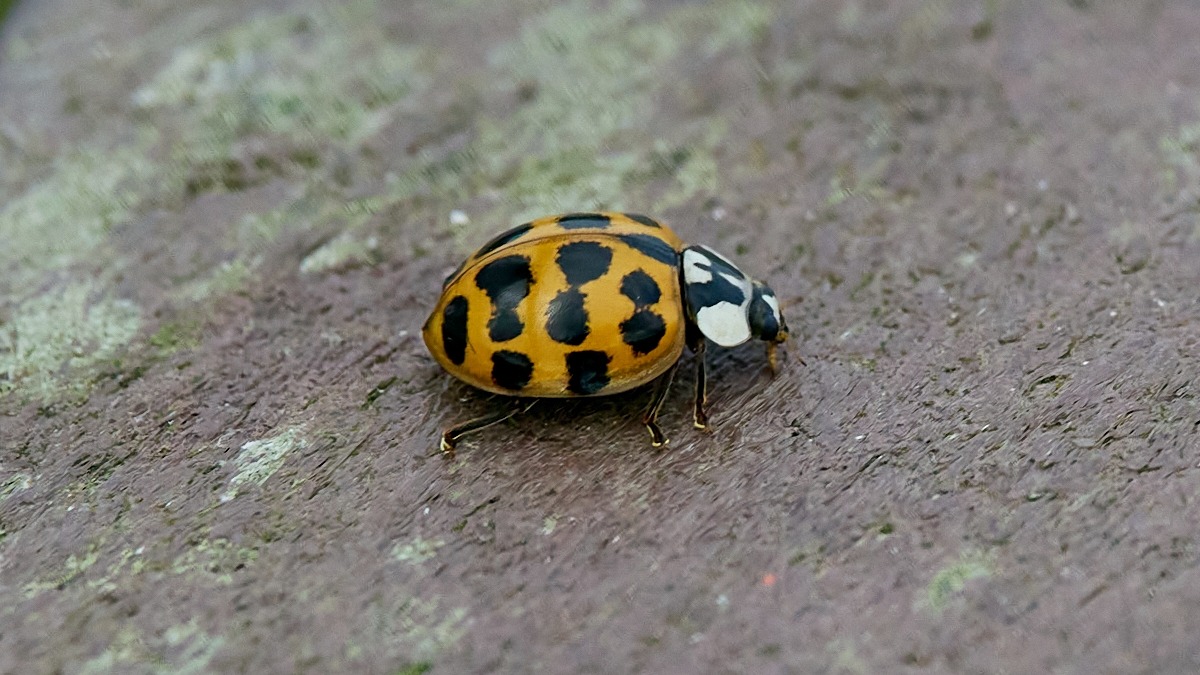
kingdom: Animalia
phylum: Arthropoda
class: Insecta
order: Coleoptera
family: Coccinellidae
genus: Harmonia
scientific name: Harmonia axyridis
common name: Harlekinmariehøne
